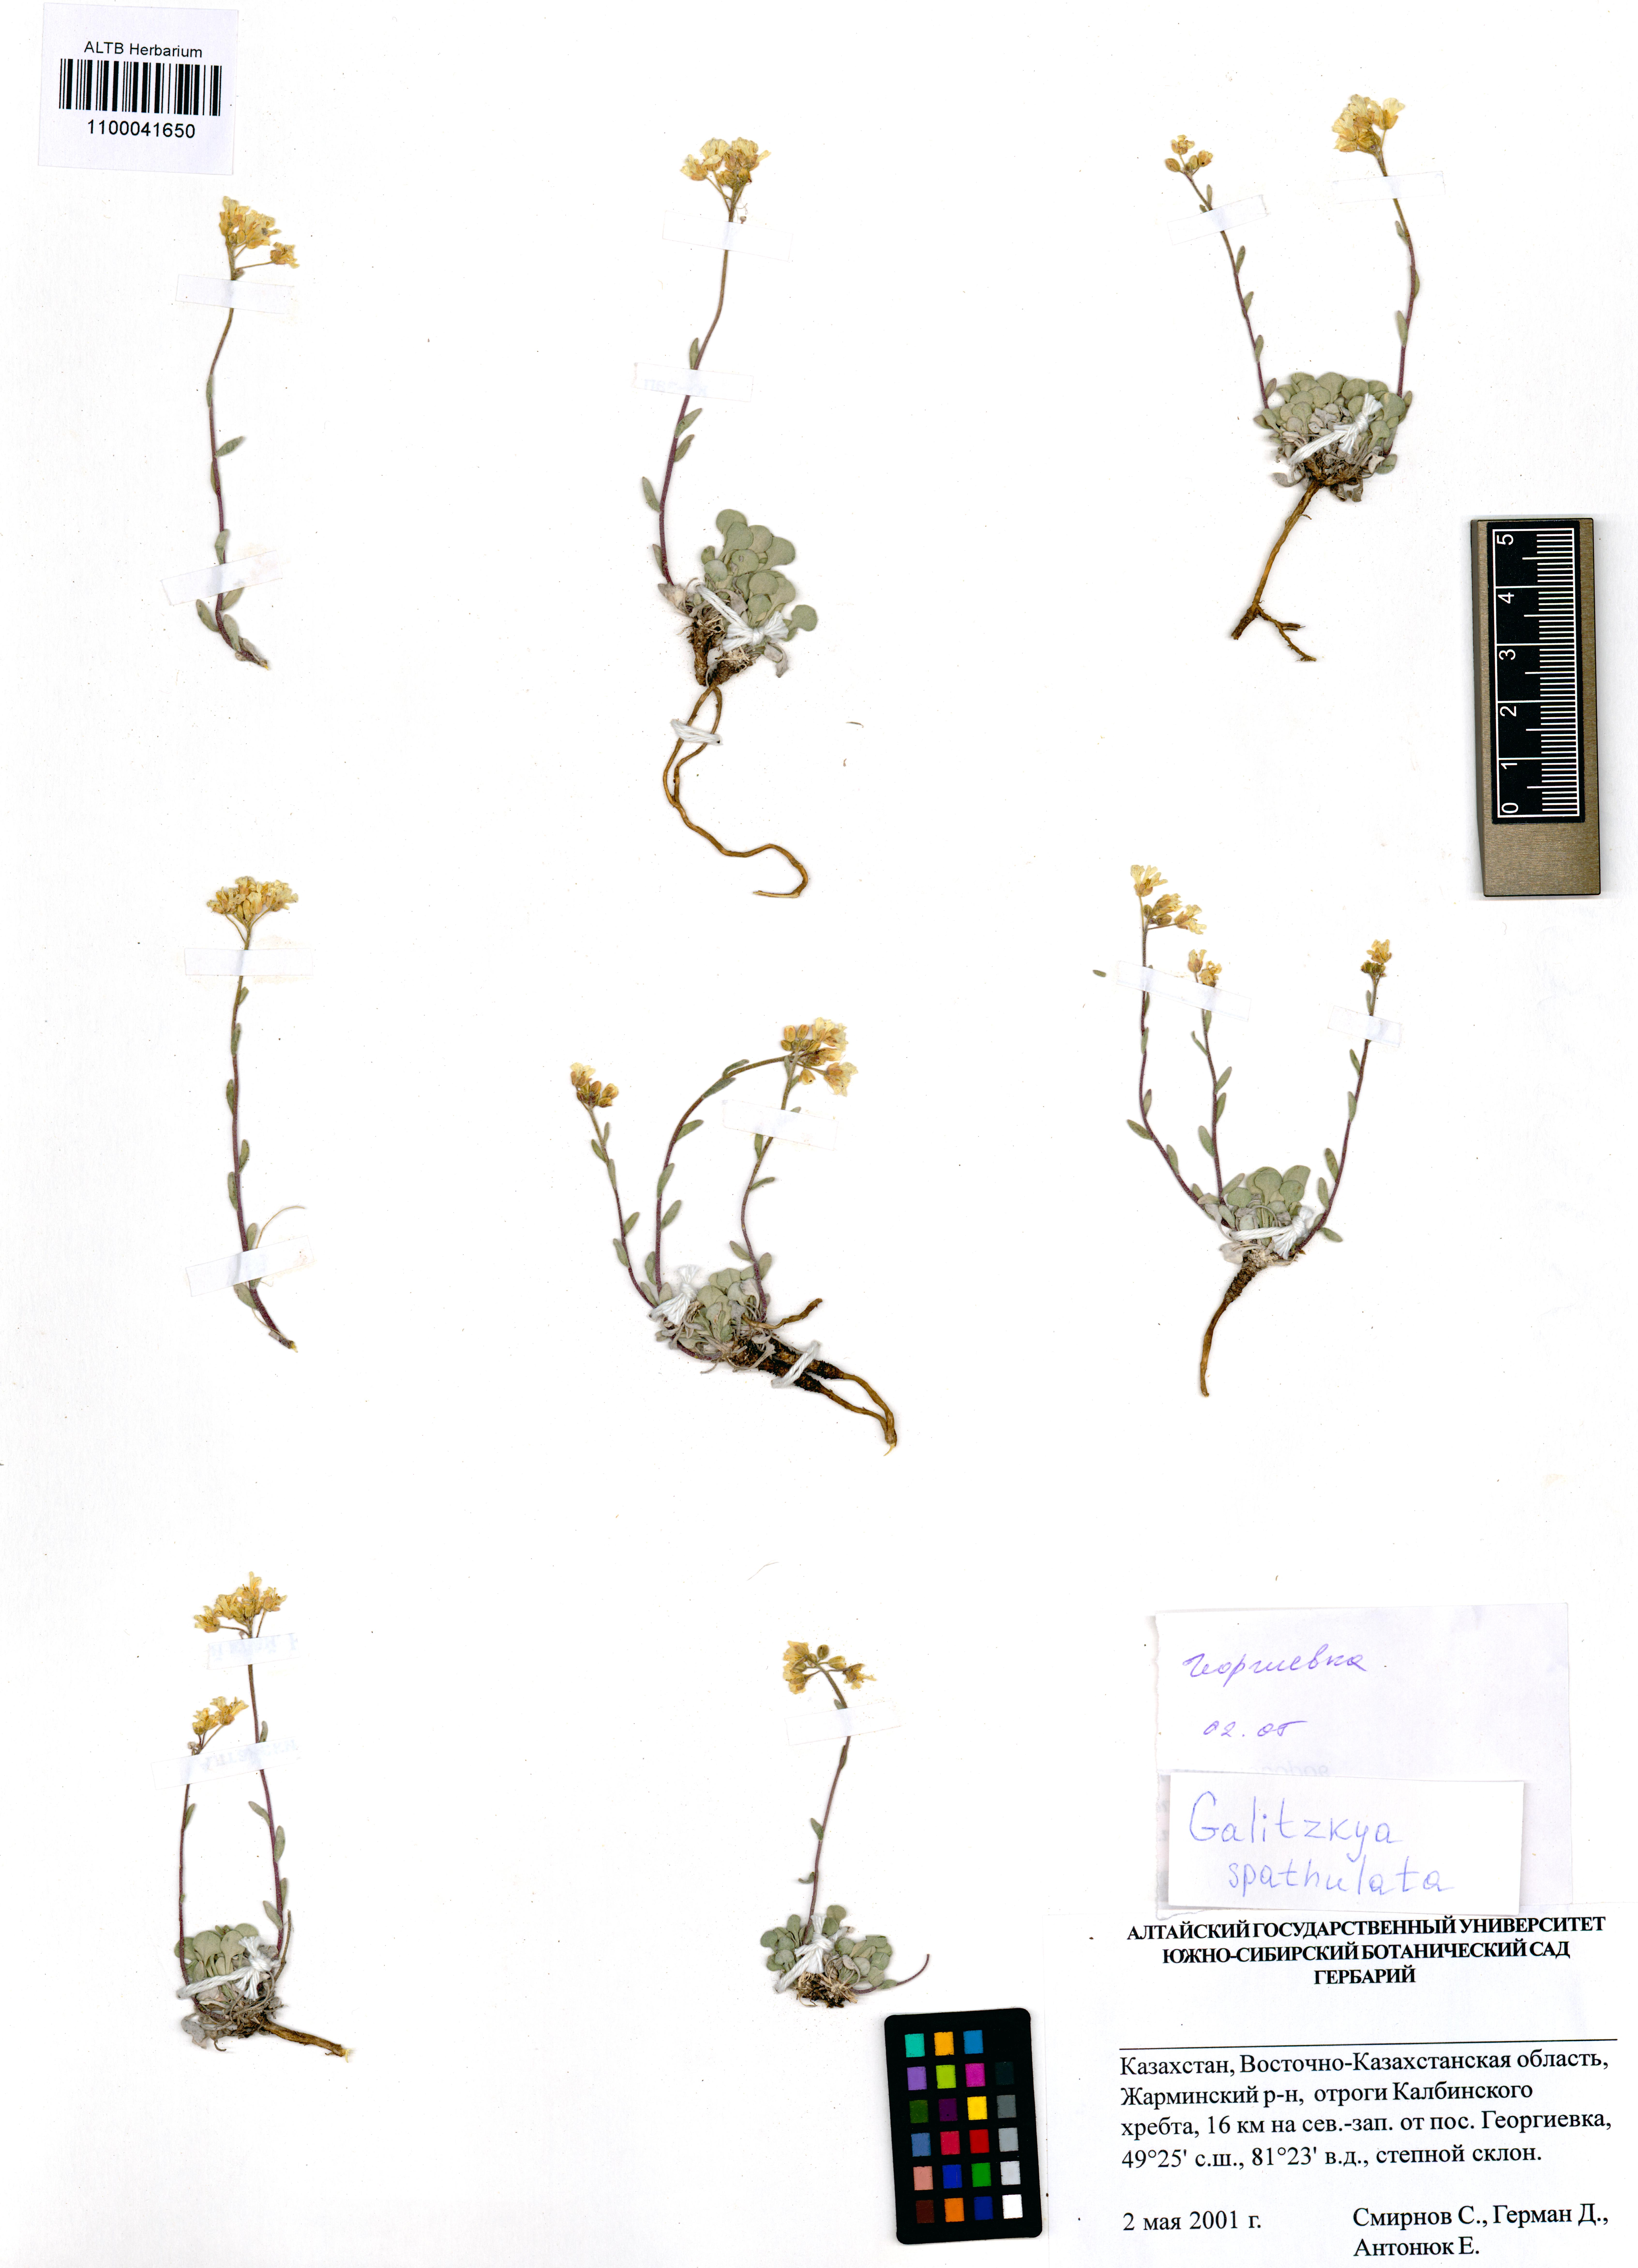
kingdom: Plantae
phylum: Tracheophyta
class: Magnoliopsida
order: Brassicales
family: Brassicaceae
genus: Galitzkya
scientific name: Galitzkya spathulata
